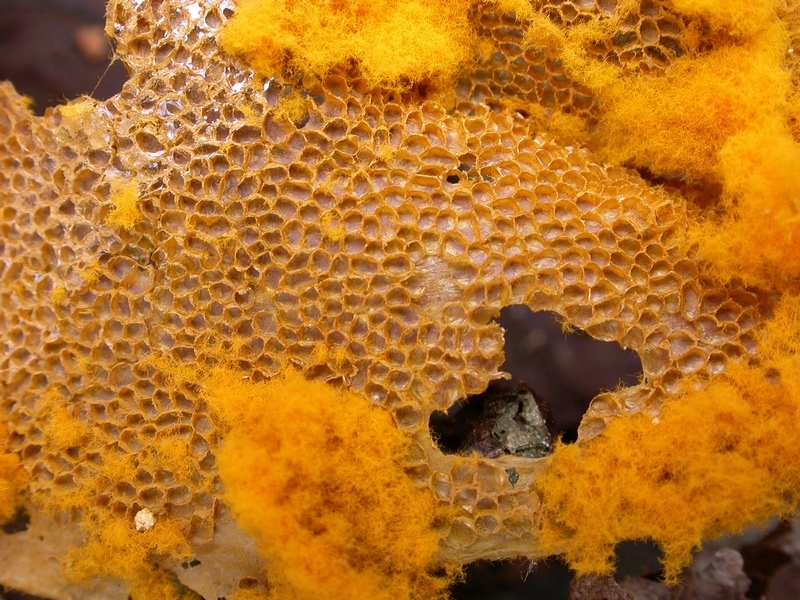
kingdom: Protozoa
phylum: Mycetozoa
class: Myxomycetes
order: Trichiales
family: Trichiaceae
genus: Trichia
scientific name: Trichia scabra
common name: tæppe-hårbold
